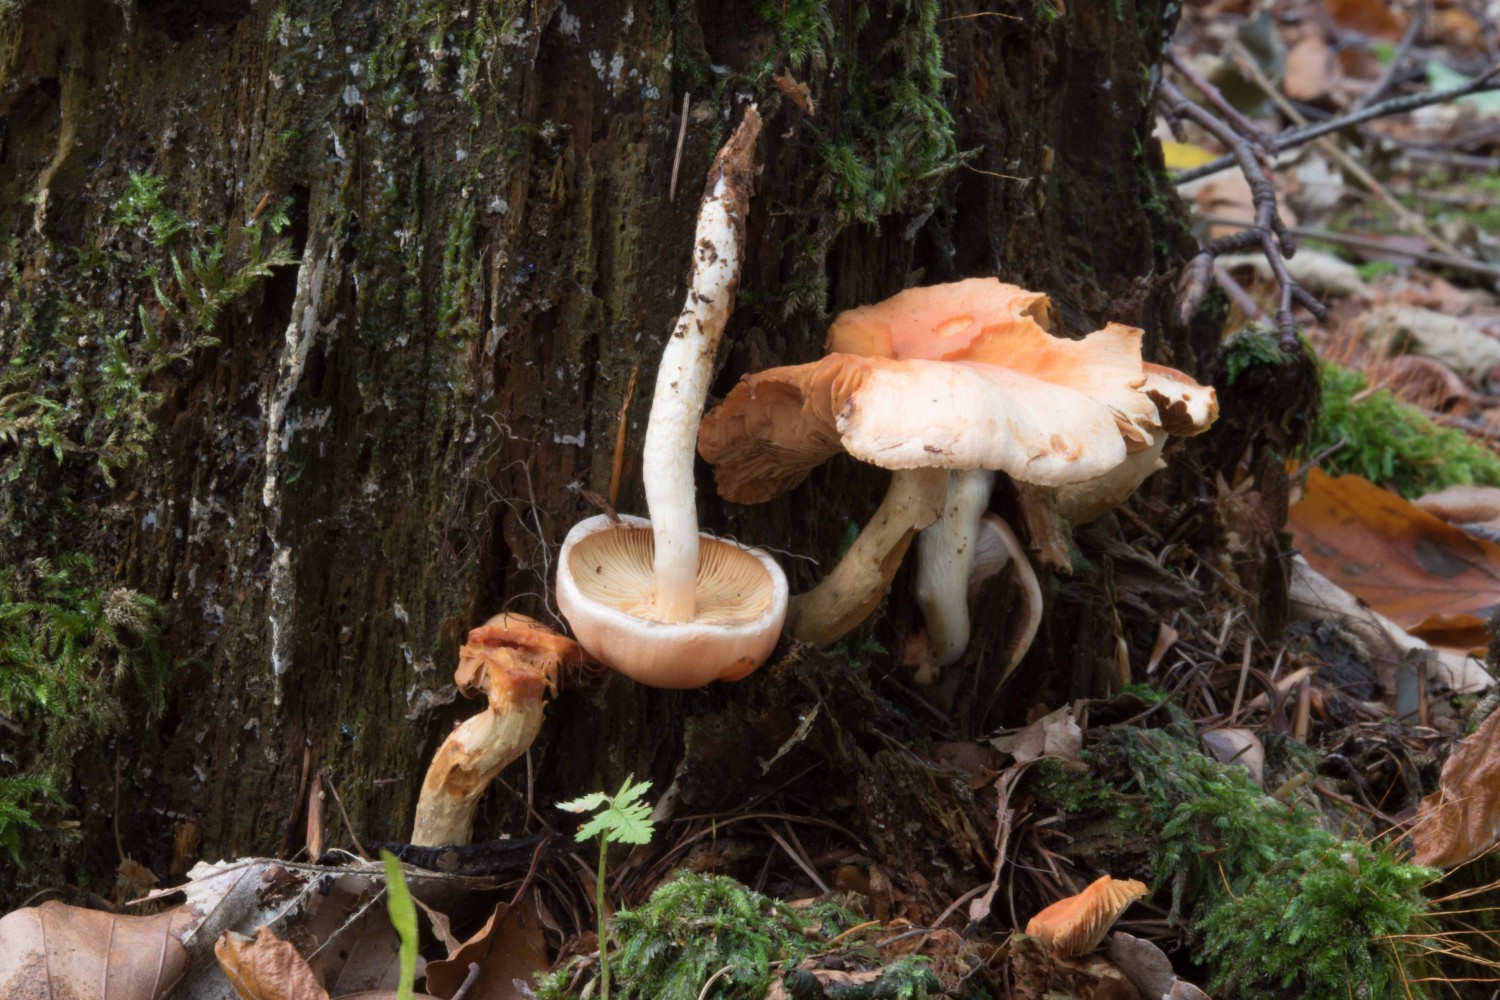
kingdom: Fungi
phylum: Basidiomycota
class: Agaricomycetes
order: Agaricales
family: Strophariaceae
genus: Pyrrhulomyces
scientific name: Pyrrhulomyces astragalinus
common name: safran-skælhat
